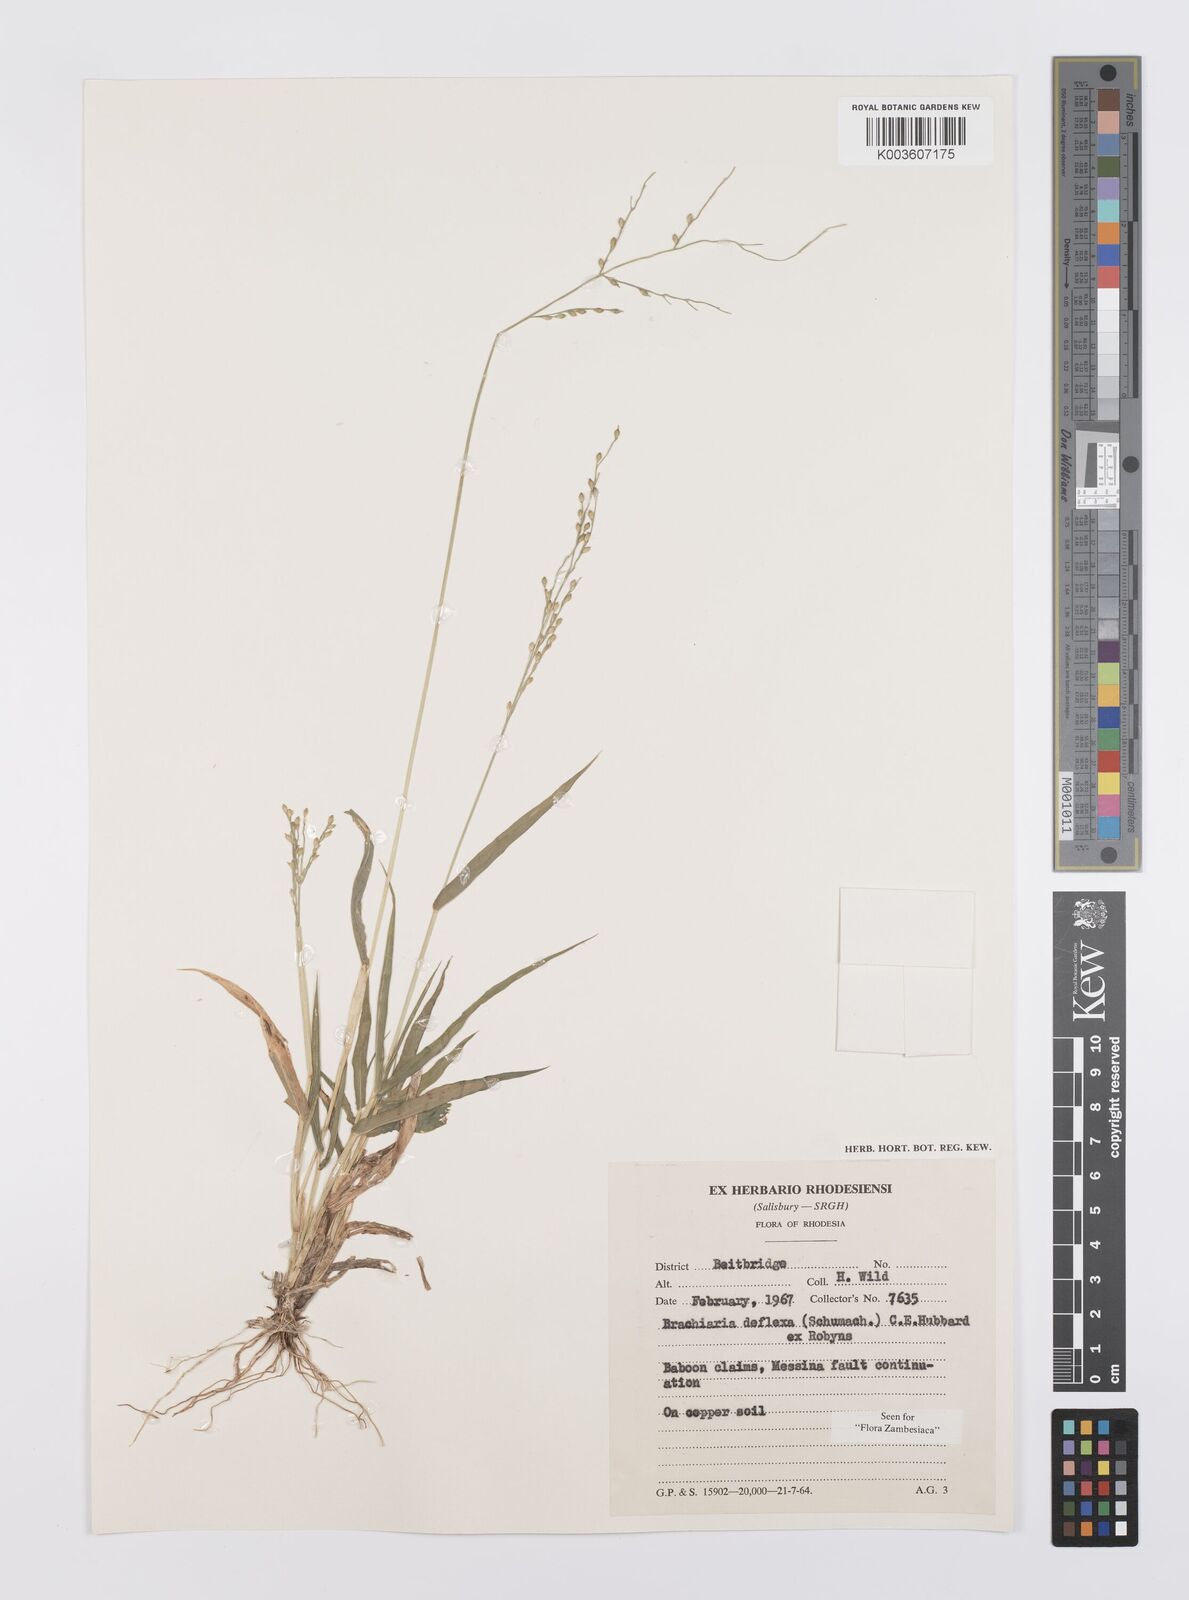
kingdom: Plantae
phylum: Tracheophyta
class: Liliopsida
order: Poales
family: Poaceae
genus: Urochloa
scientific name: Urochloa deflexa
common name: Guinea millet
